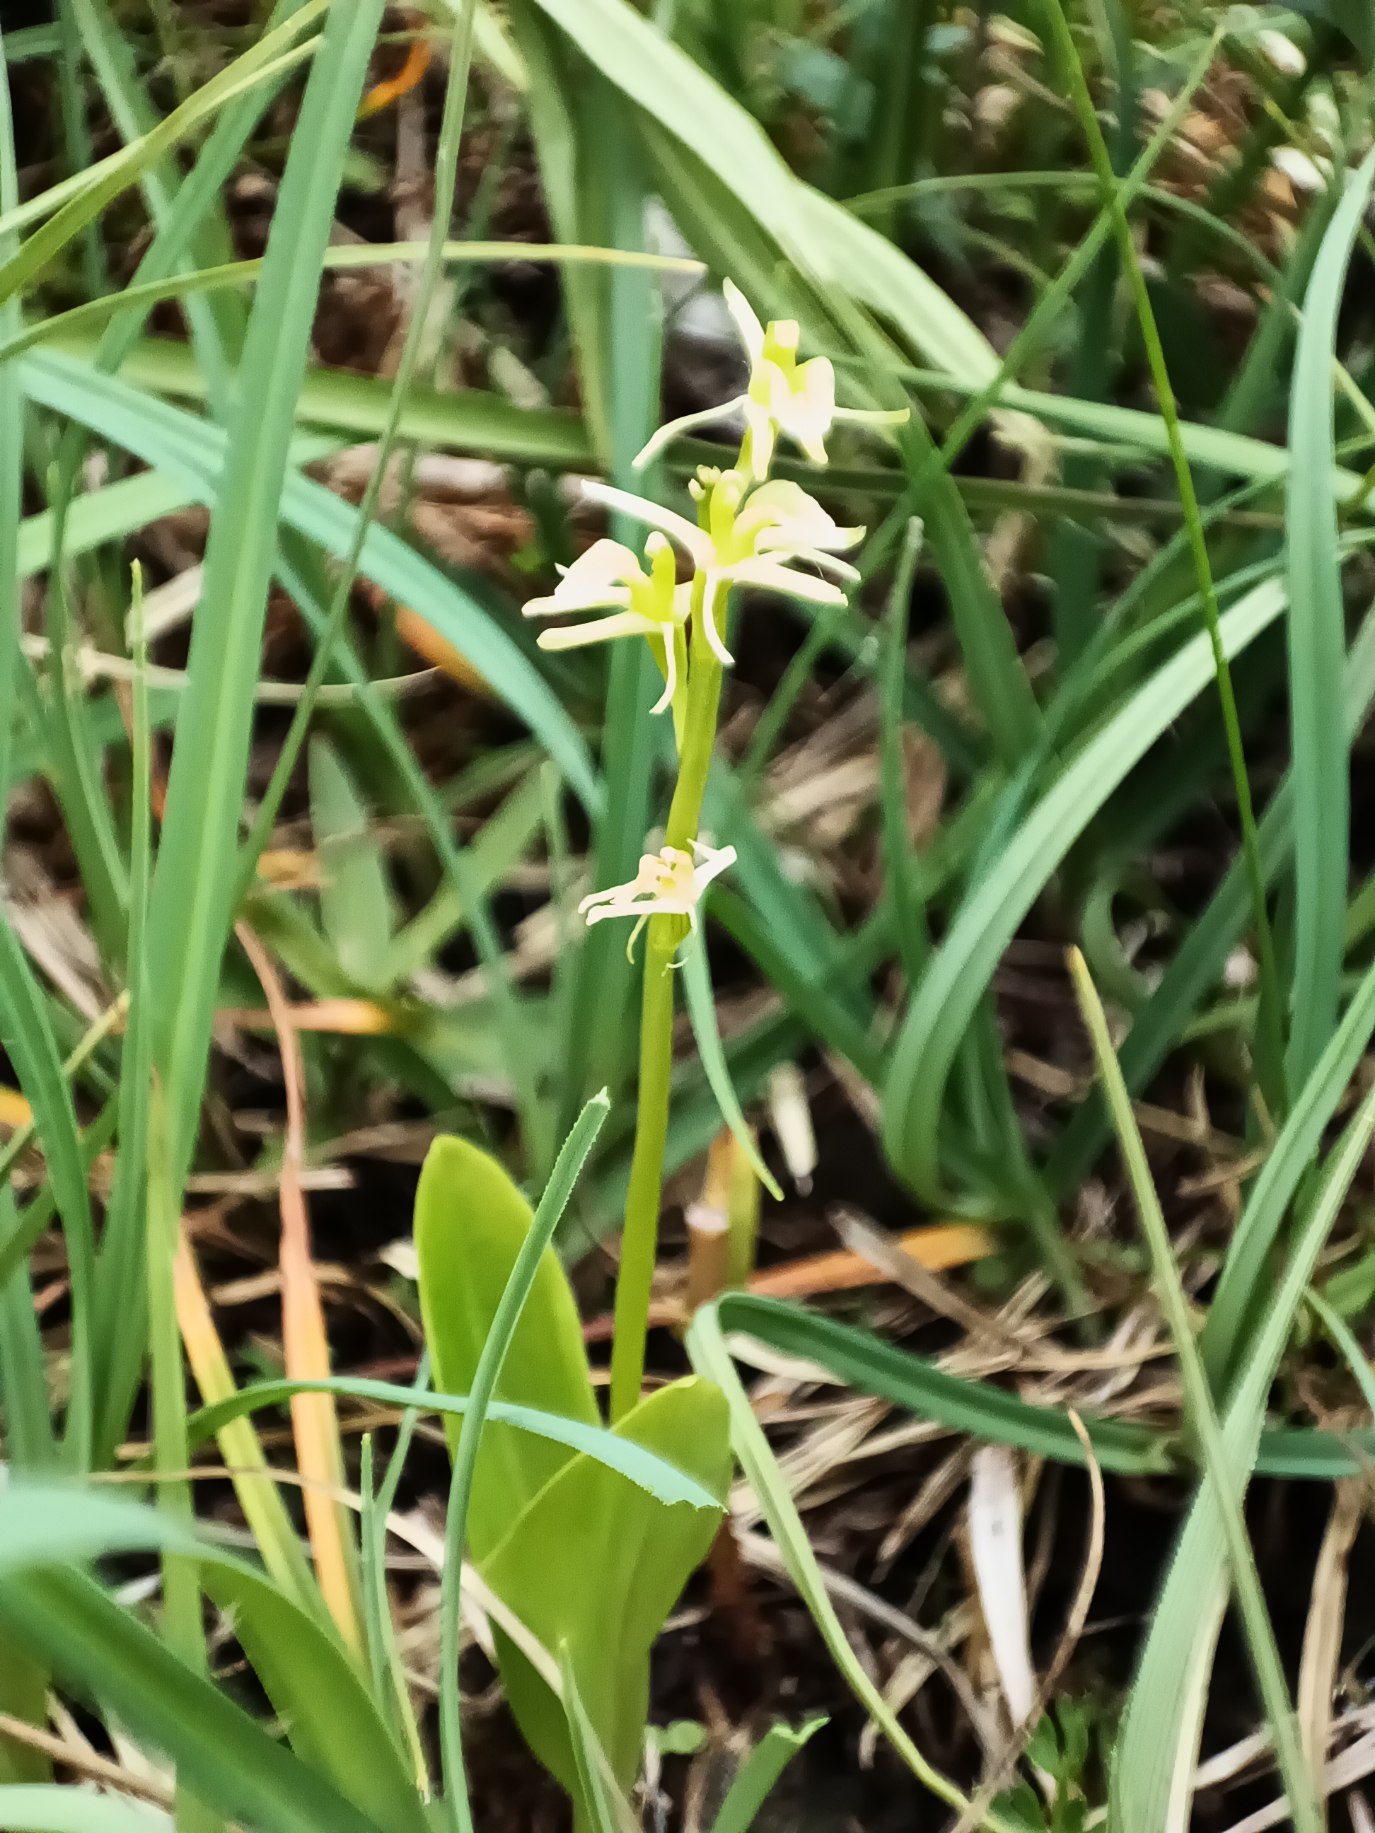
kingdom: Animalia
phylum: Arthropoda
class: Insecta
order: Coleoptera
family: Curculionidae
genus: Liparis
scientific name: Liparis loeselii
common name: Mygblomst
